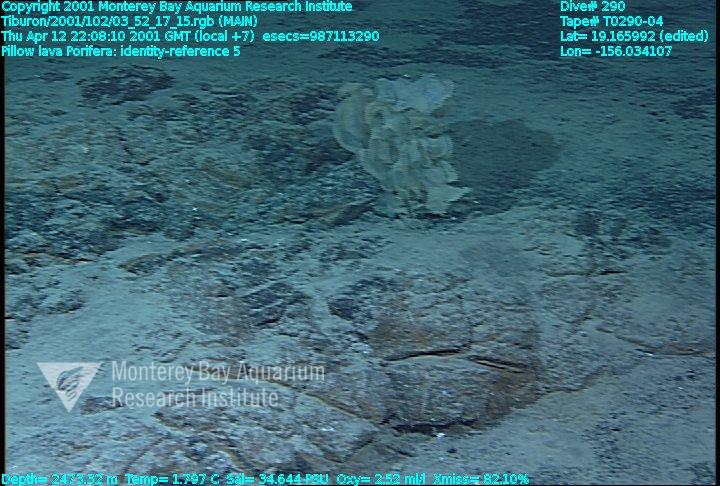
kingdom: Animalia
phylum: Porifera
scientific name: Porifera
